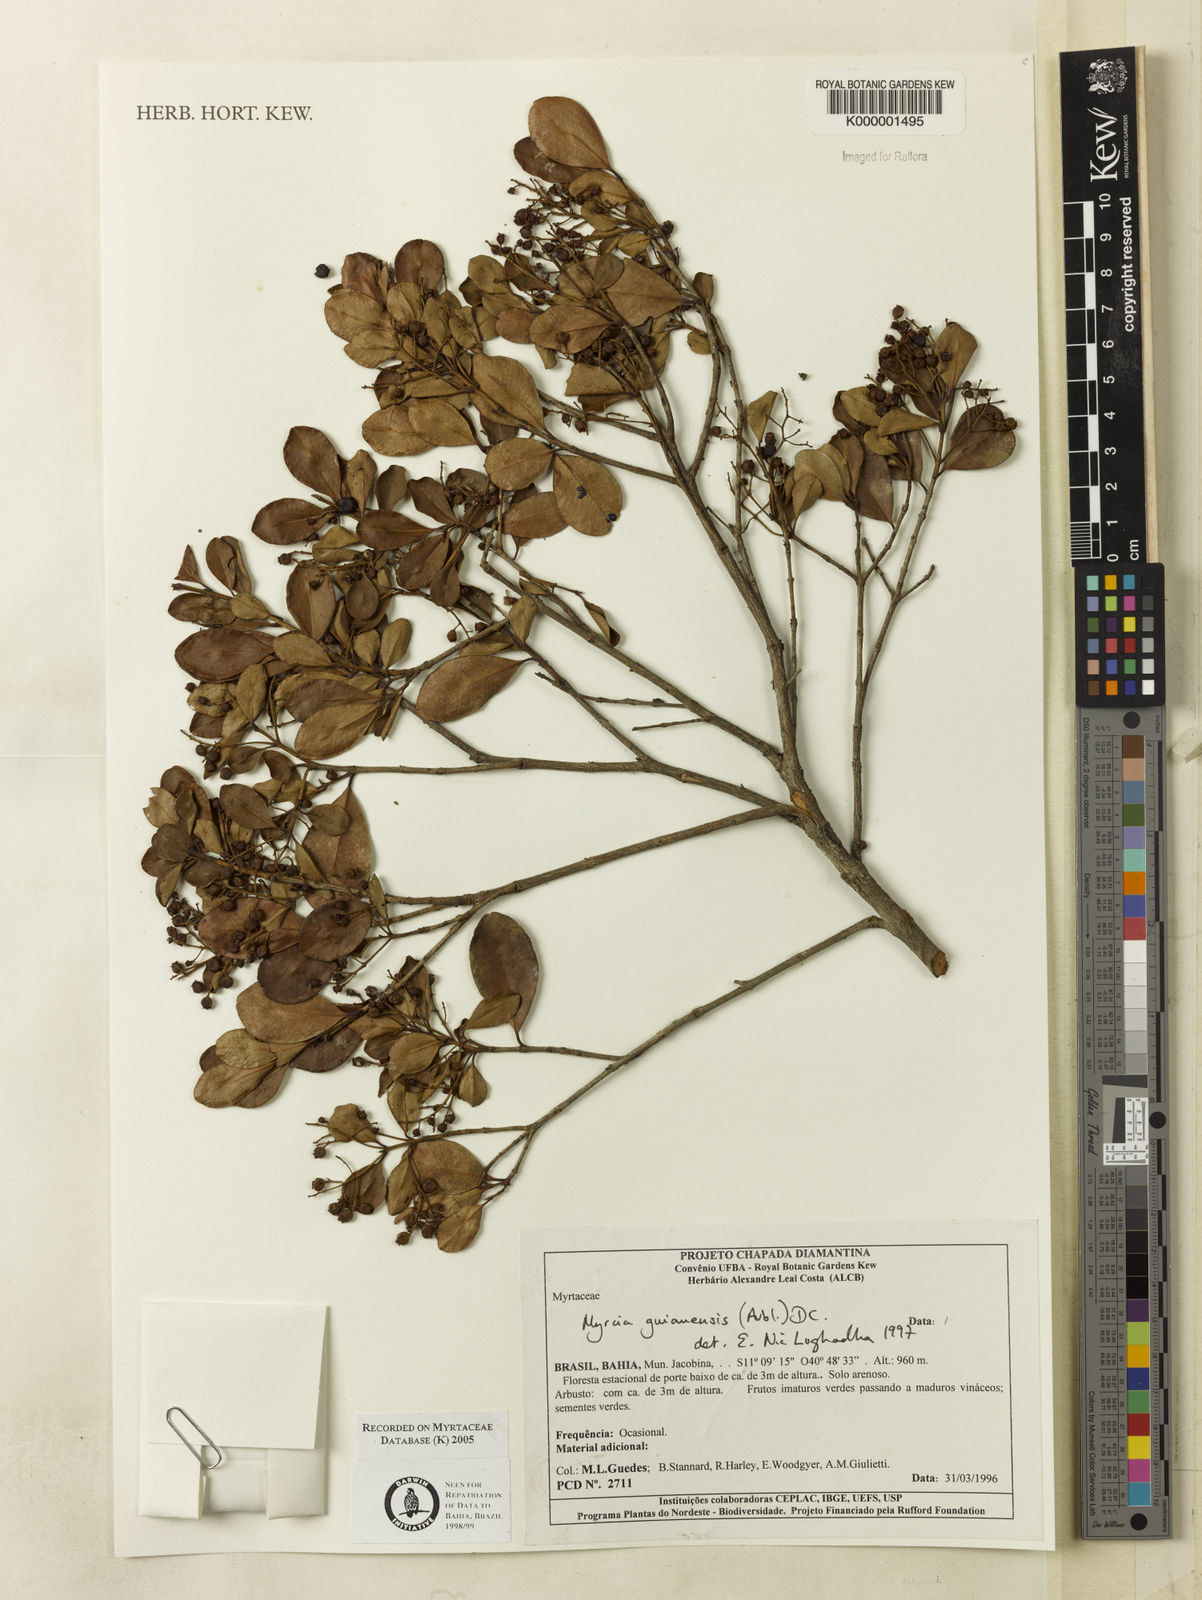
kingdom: Plantae
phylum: Tracheophyta
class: Magnoliopsida
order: Myrtales
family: Myrtaceae
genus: Myrcia
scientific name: Myrcia guianensis
